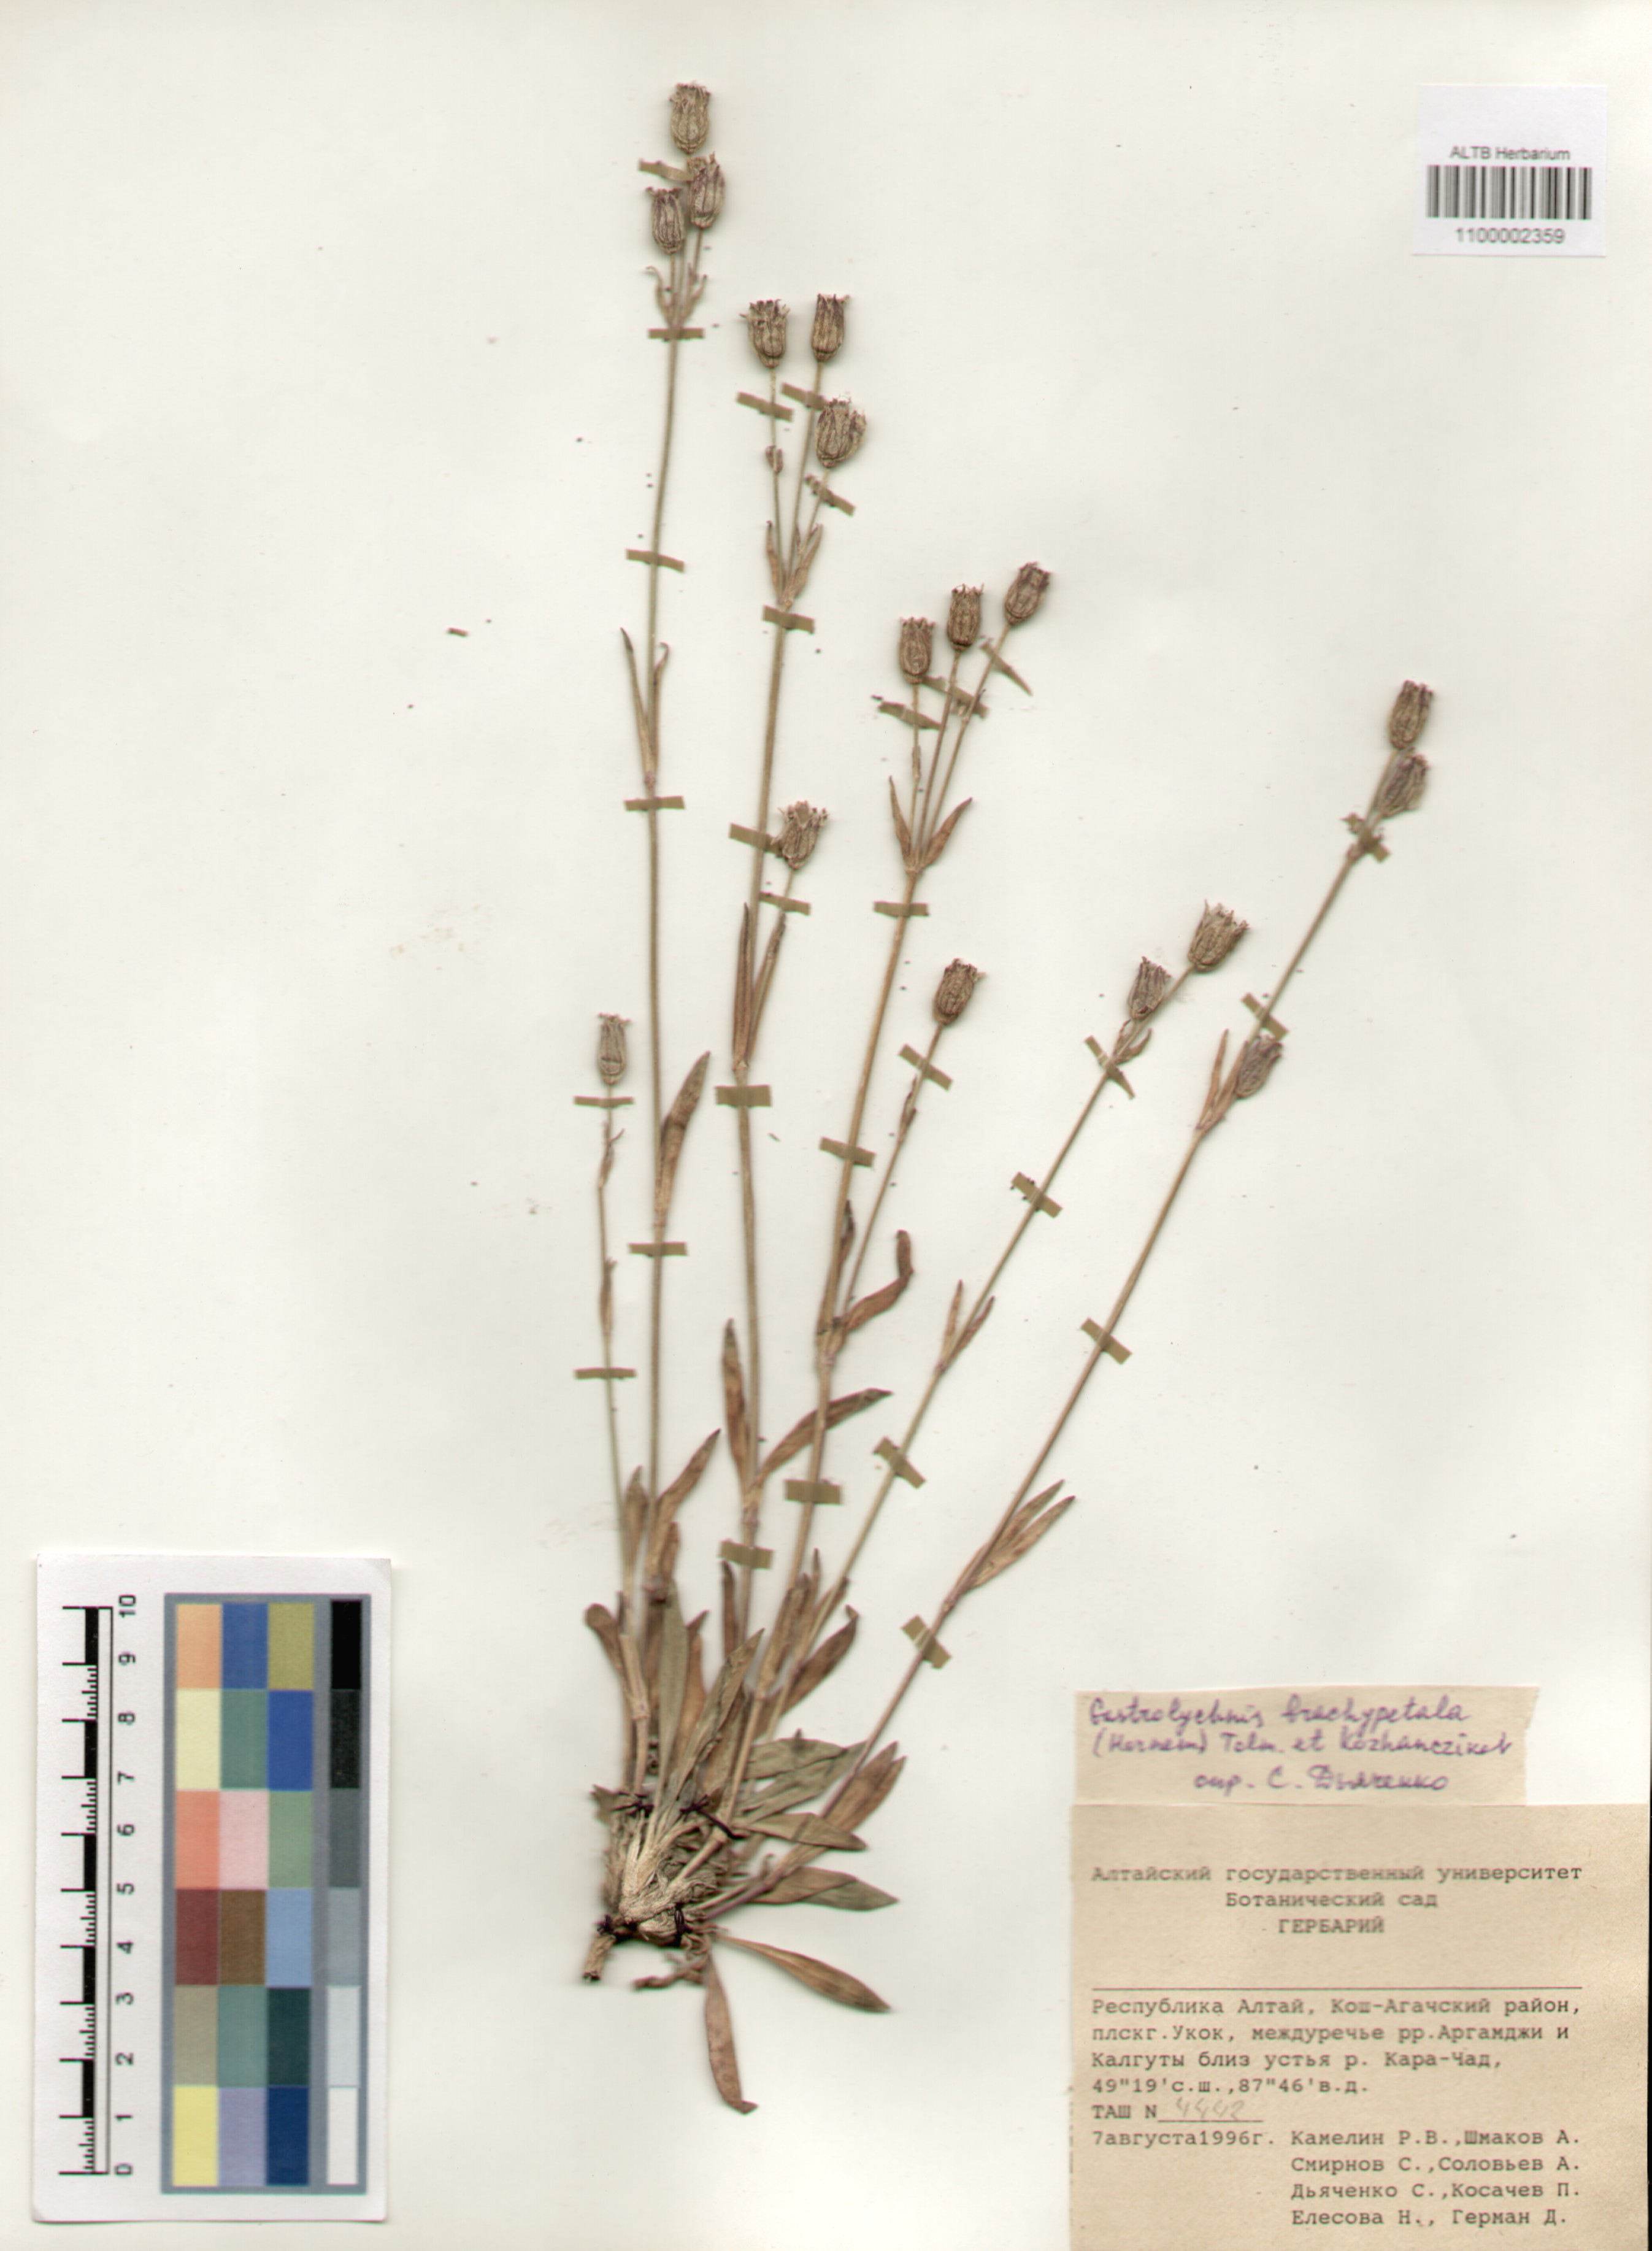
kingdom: Plantae
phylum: Tracheophyta
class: Magnoliopsida
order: Caryophyllales
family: Caryophyllaceae
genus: Silene
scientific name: Silene songarica
